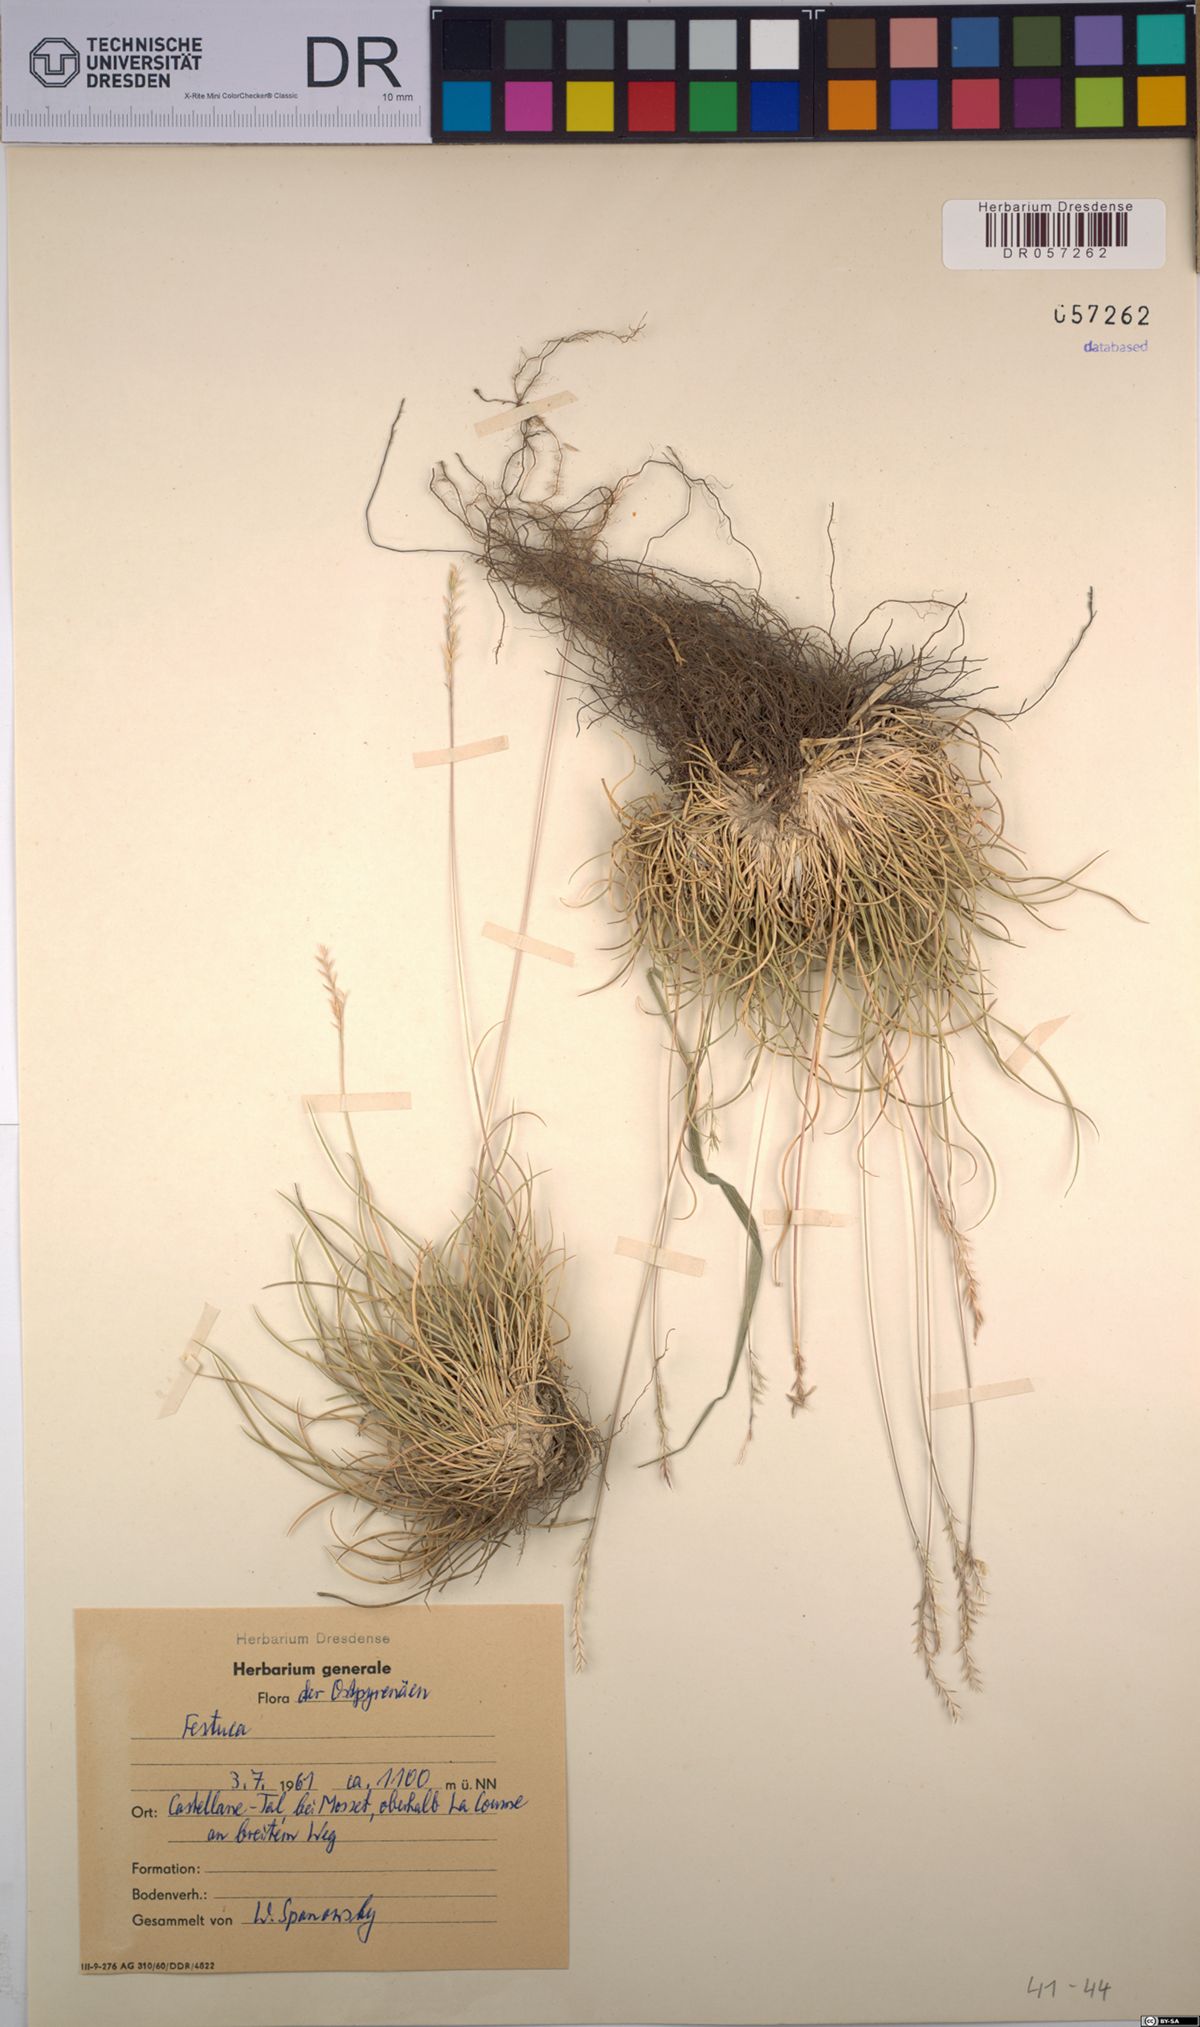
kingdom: Plantae
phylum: Tracheophyta
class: Liliopsida
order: Poales
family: Poaceae
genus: Festuca
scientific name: Festuca
